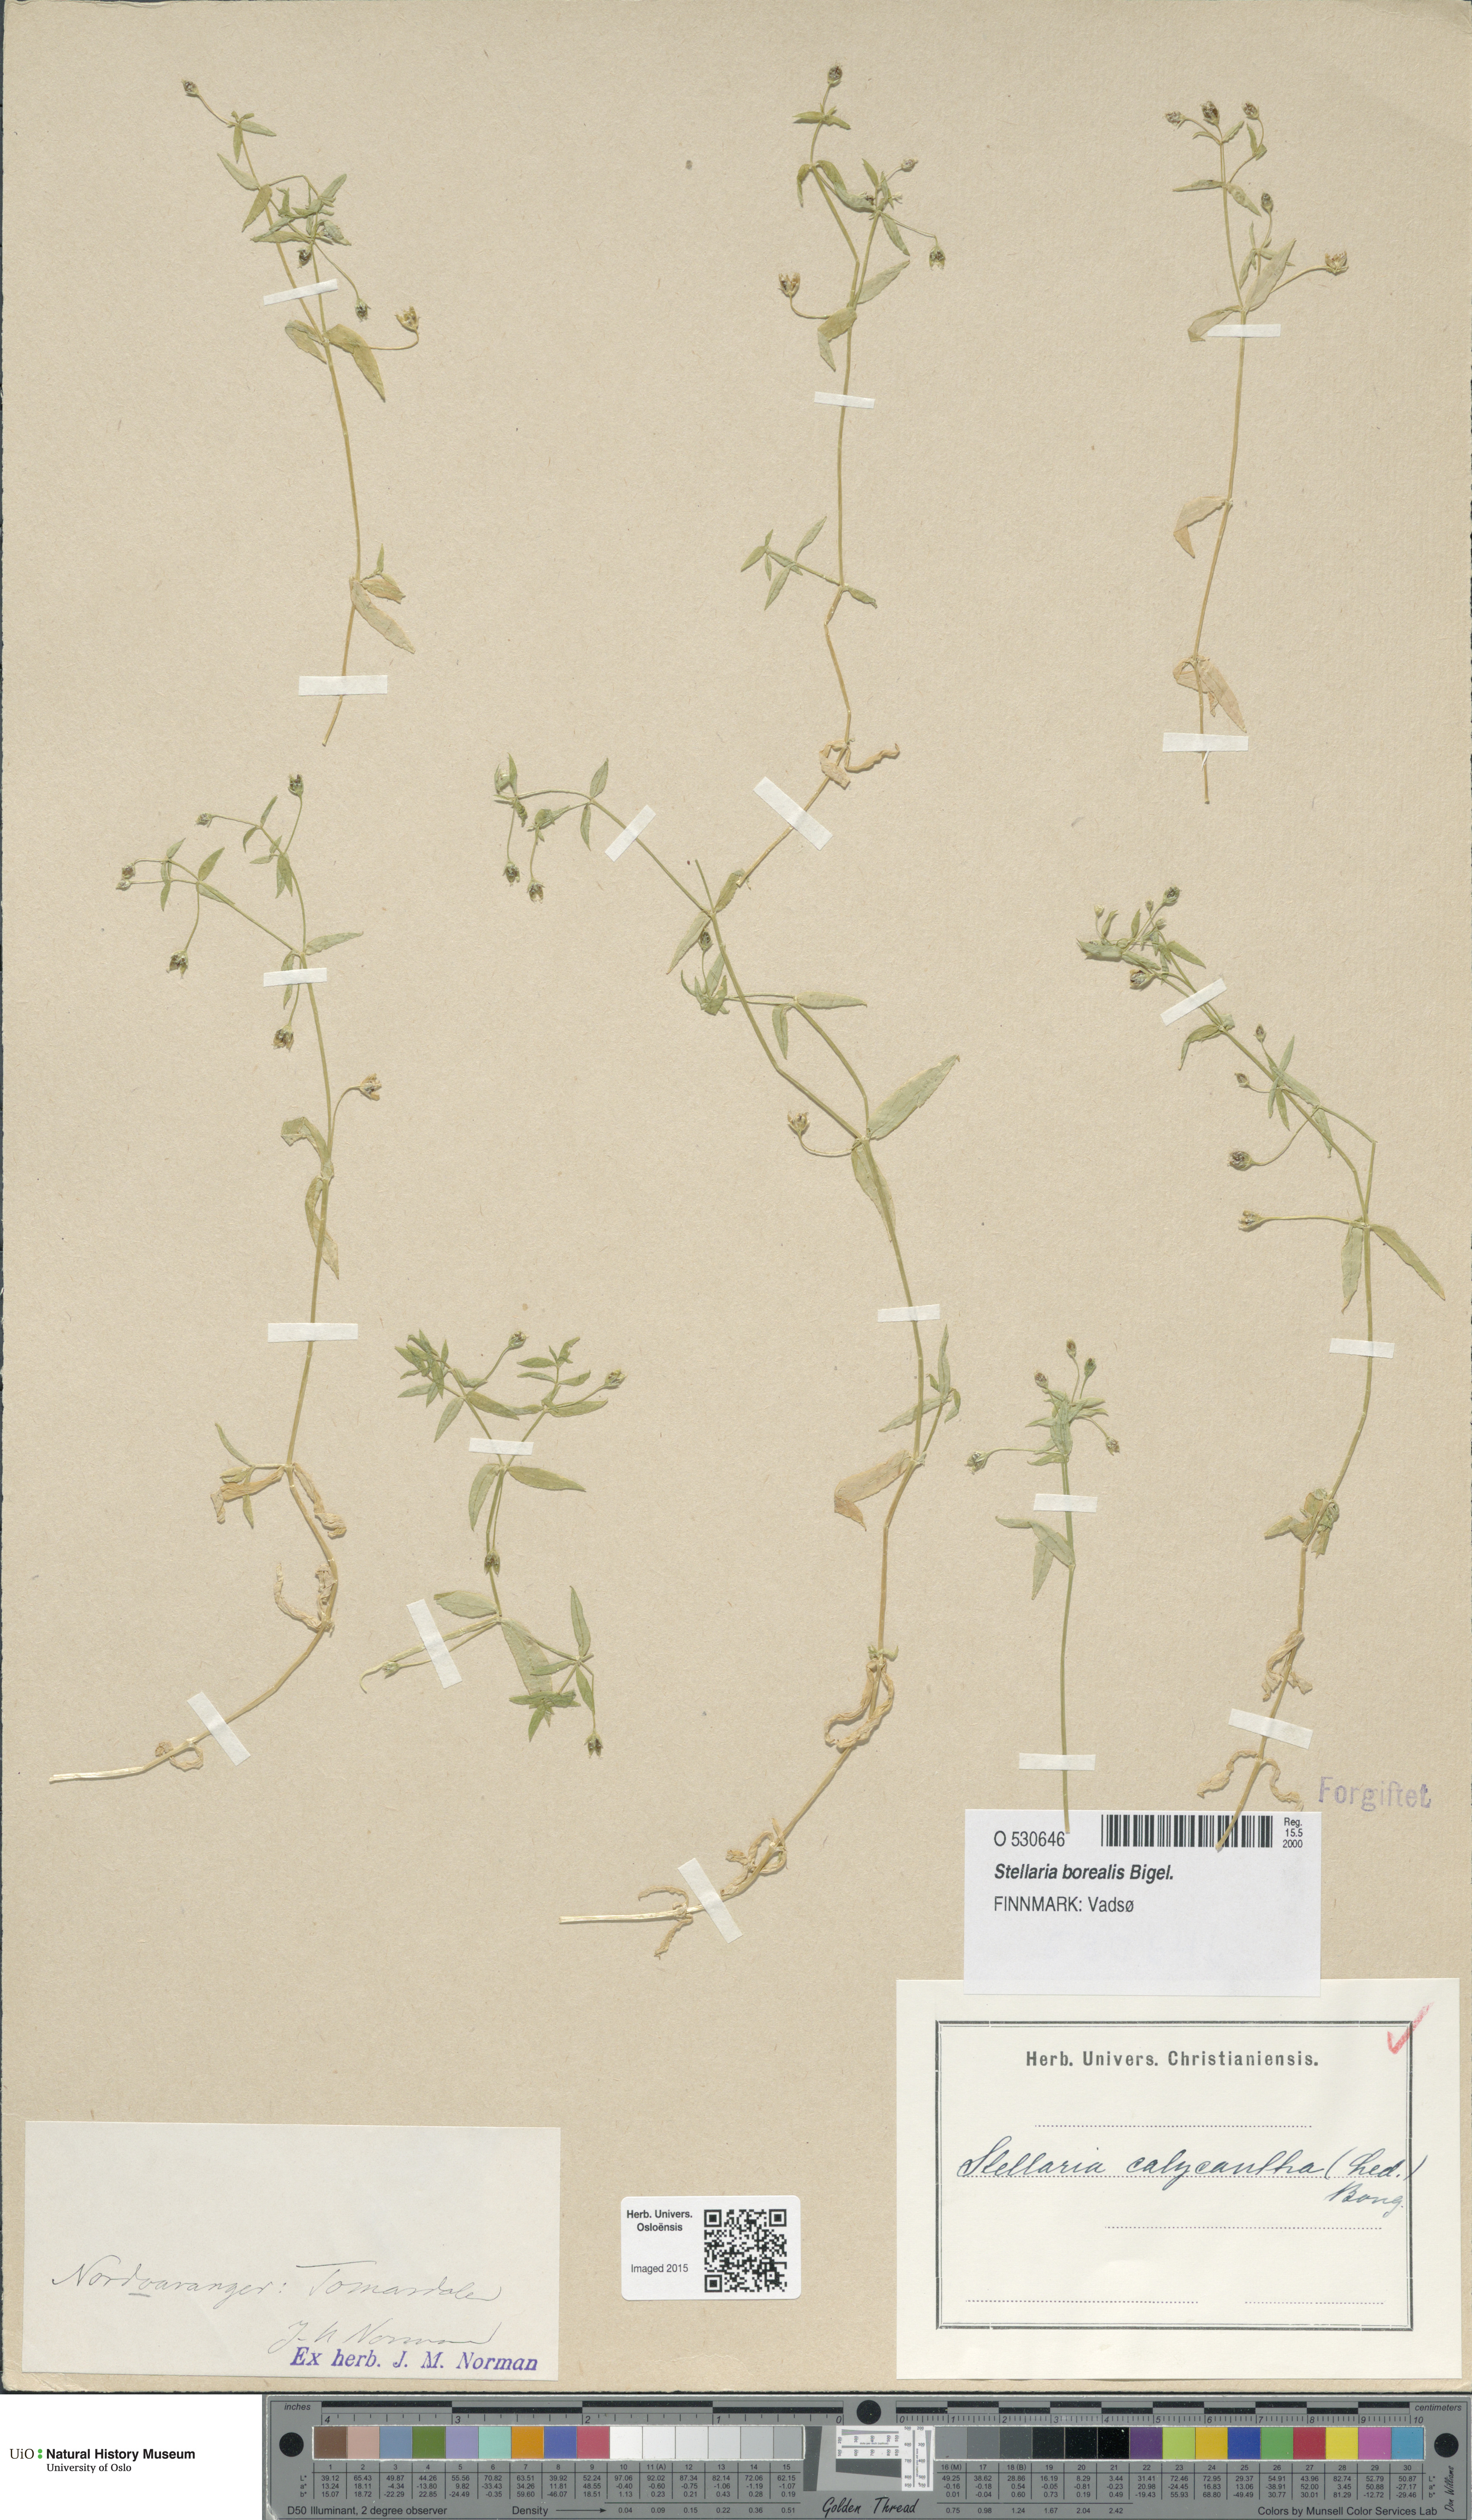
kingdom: Plantae
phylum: Tracheophyta
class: Magnoliopsida
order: Caryophyllales
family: Caryophyllaceae
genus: Stellaria
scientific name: Stellaria borealis
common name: Boreal starwort
